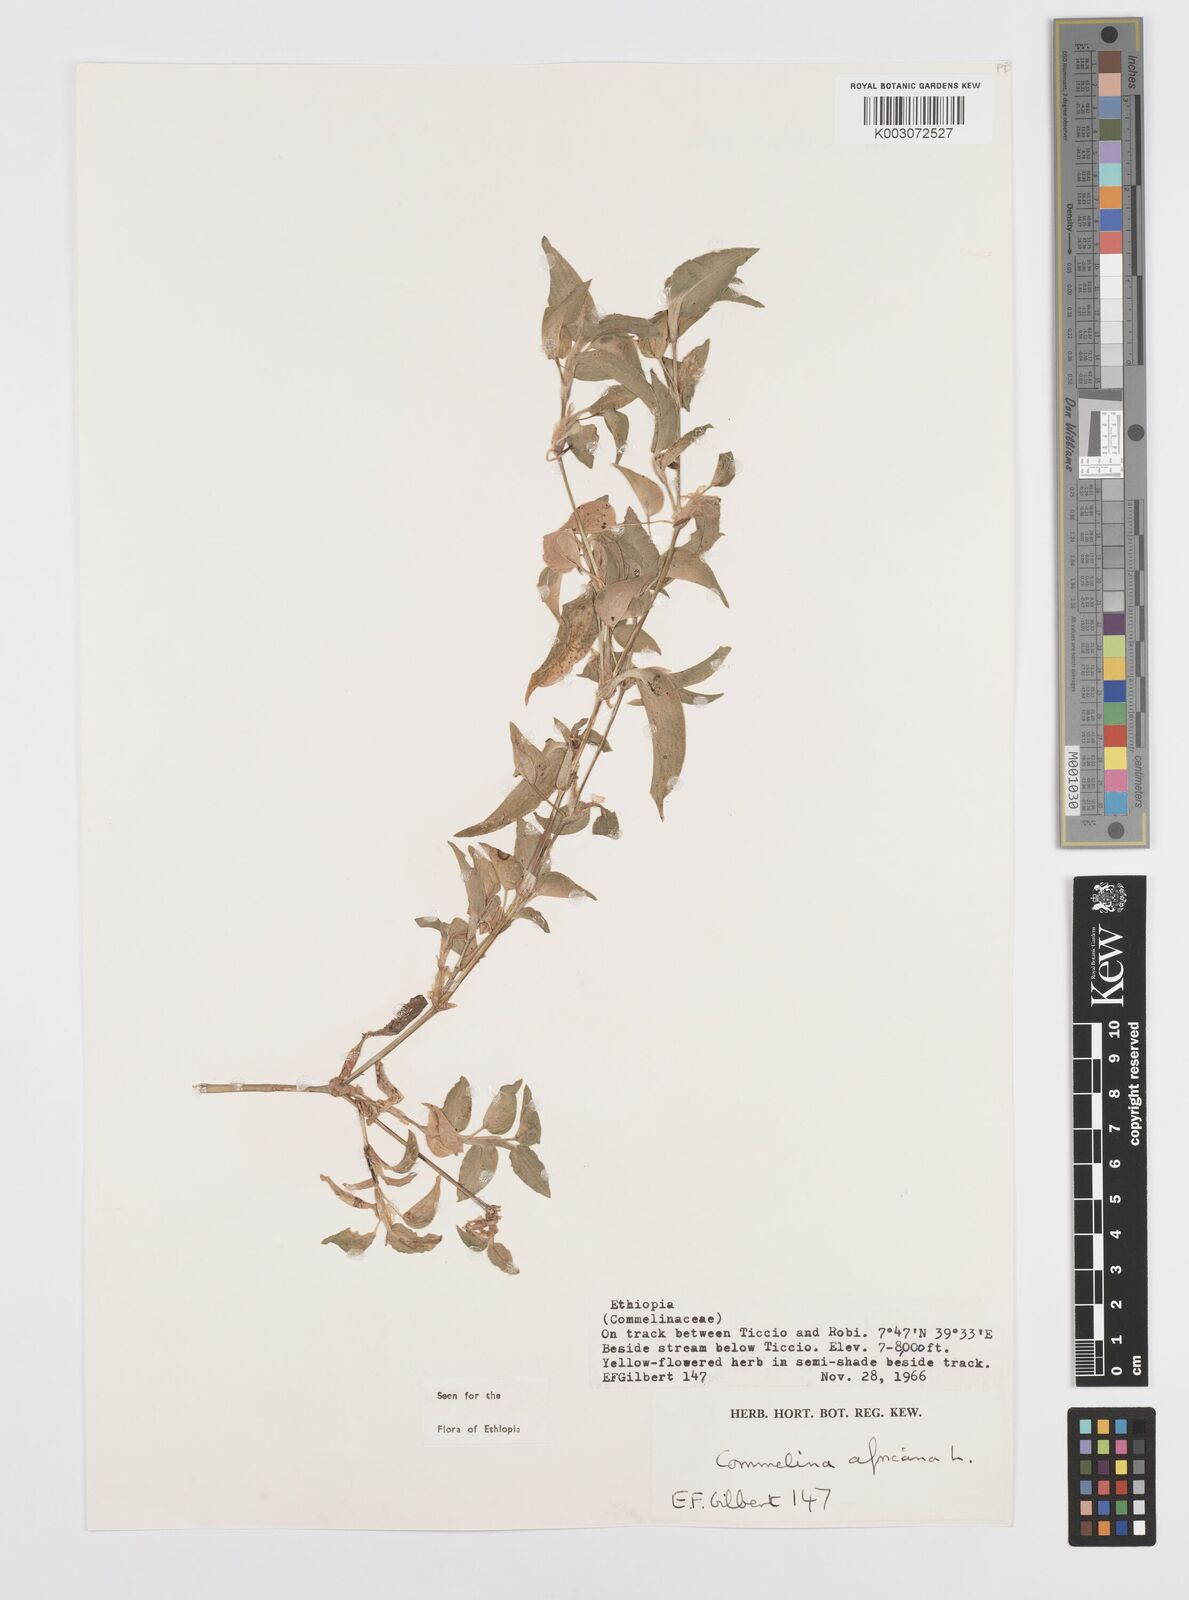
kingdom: Plantae
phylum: Tracheophyta
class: Liliopsida
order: Commelinales
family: Commelinaceae
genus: Commelina
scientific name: Commelina africana
